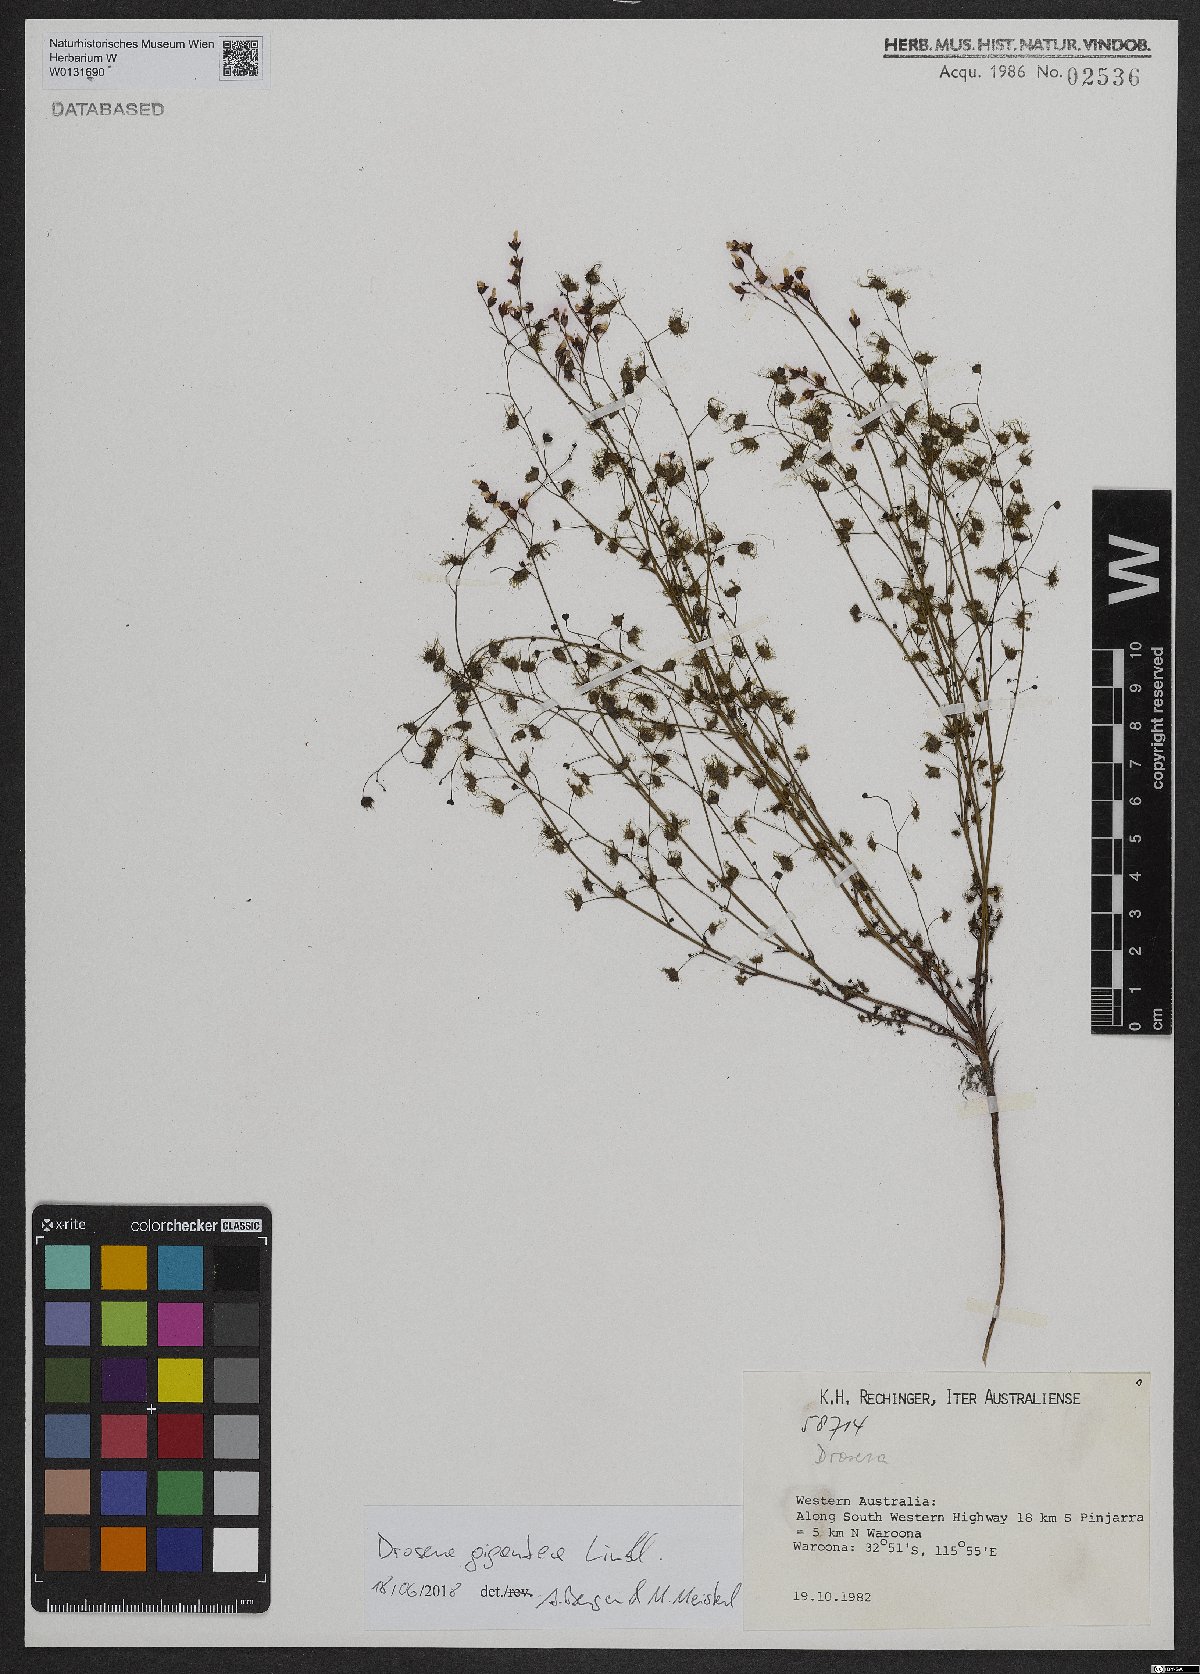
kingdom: Plantae
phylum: Tracheophyta
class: Magnoliopsida
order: Caryophyllales
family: Droseraceae
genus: Drosera
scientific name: Drosera gigantea
